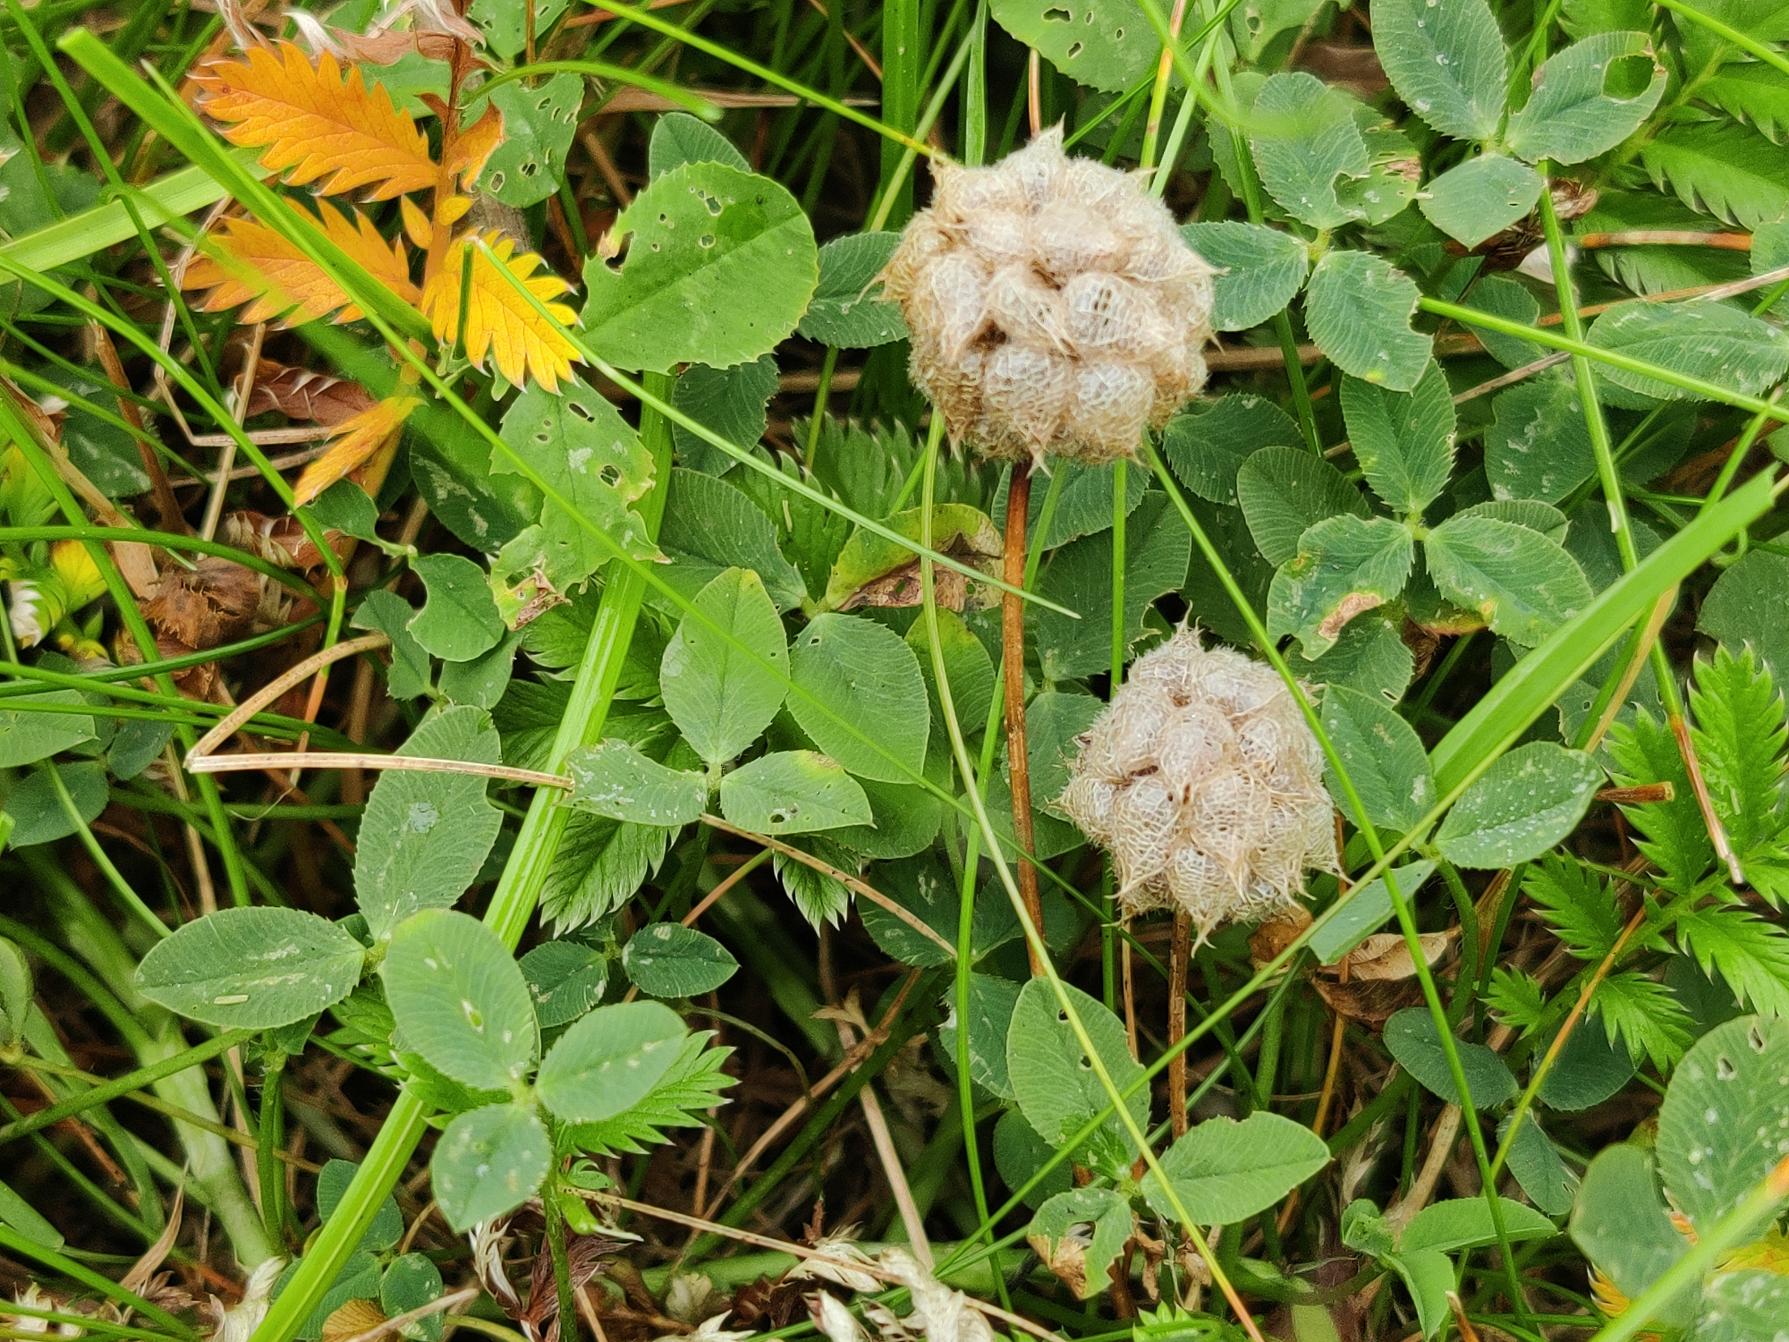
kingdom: Plantae
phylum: Tracheophyta
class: Magnoliopsida
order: Fabales
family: Fabaceae
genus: Trifolium
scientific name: Trifolium fragiferum
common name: Jordbær-kløver
